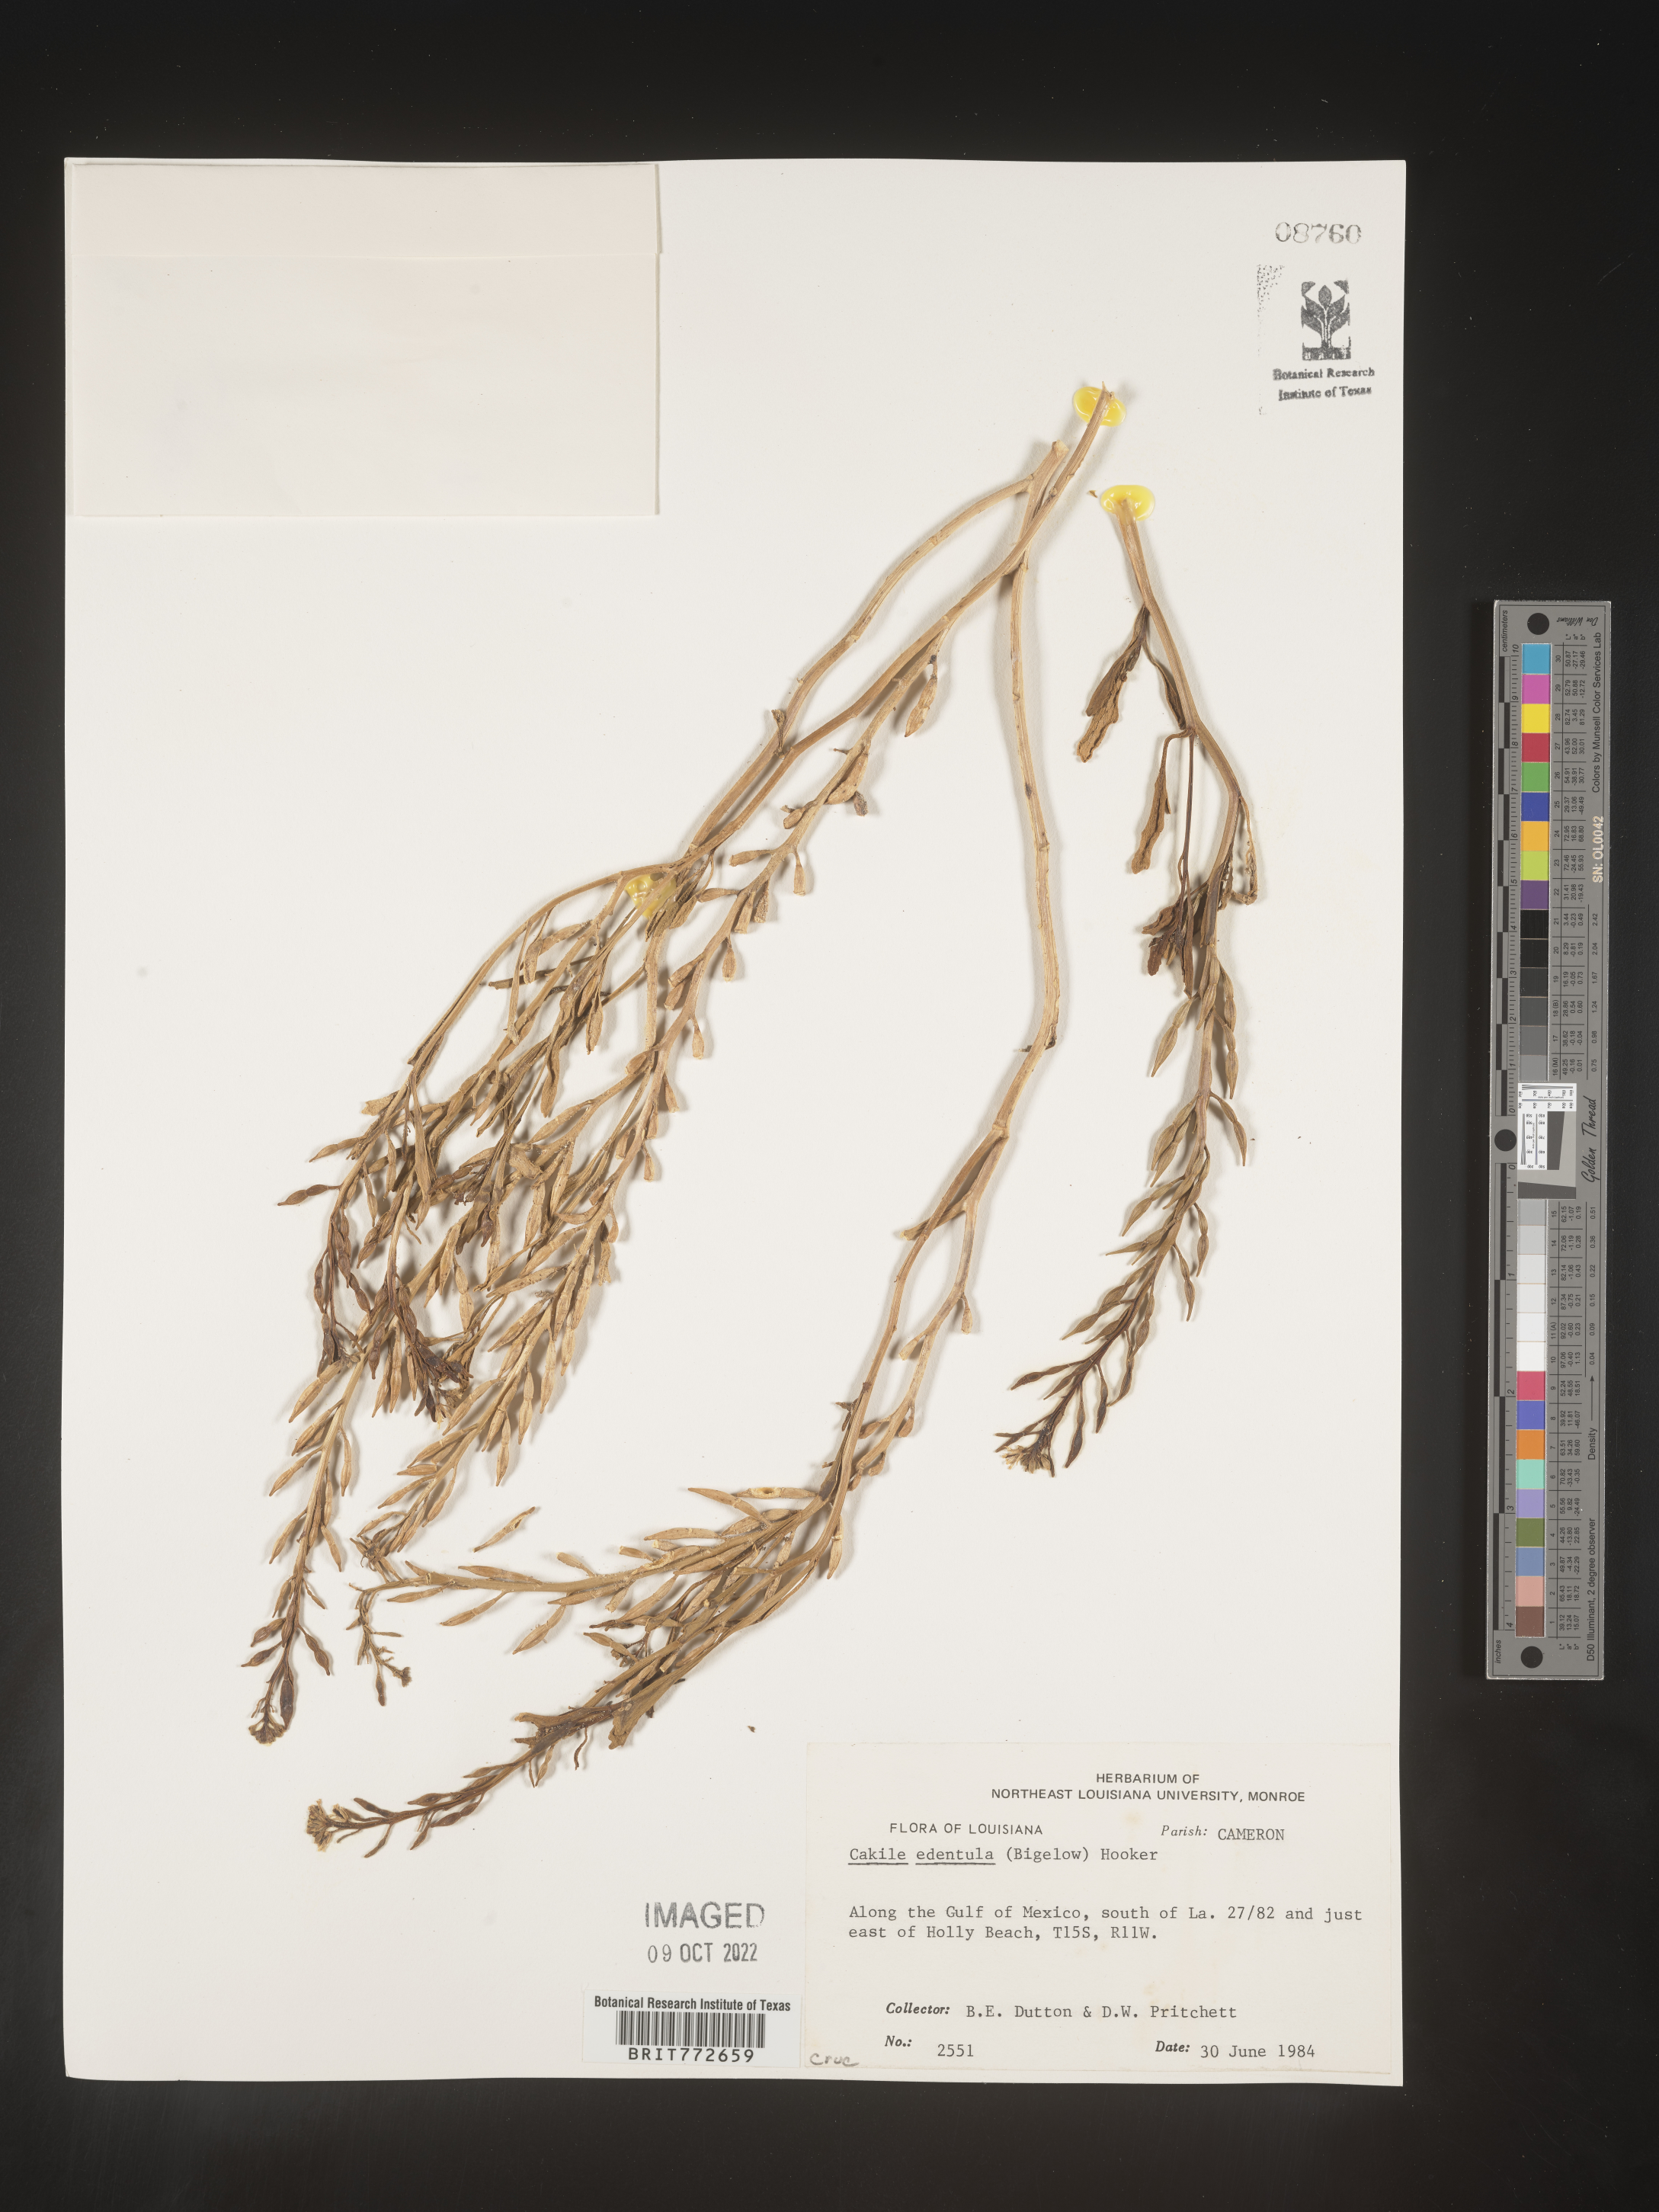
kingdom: Plantae
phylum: Tracheophyta
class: Magnoliopsida
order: Brassicales
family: Brassicaceae
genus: Cakile
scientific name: Cakile edentula
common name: American sea rocket
